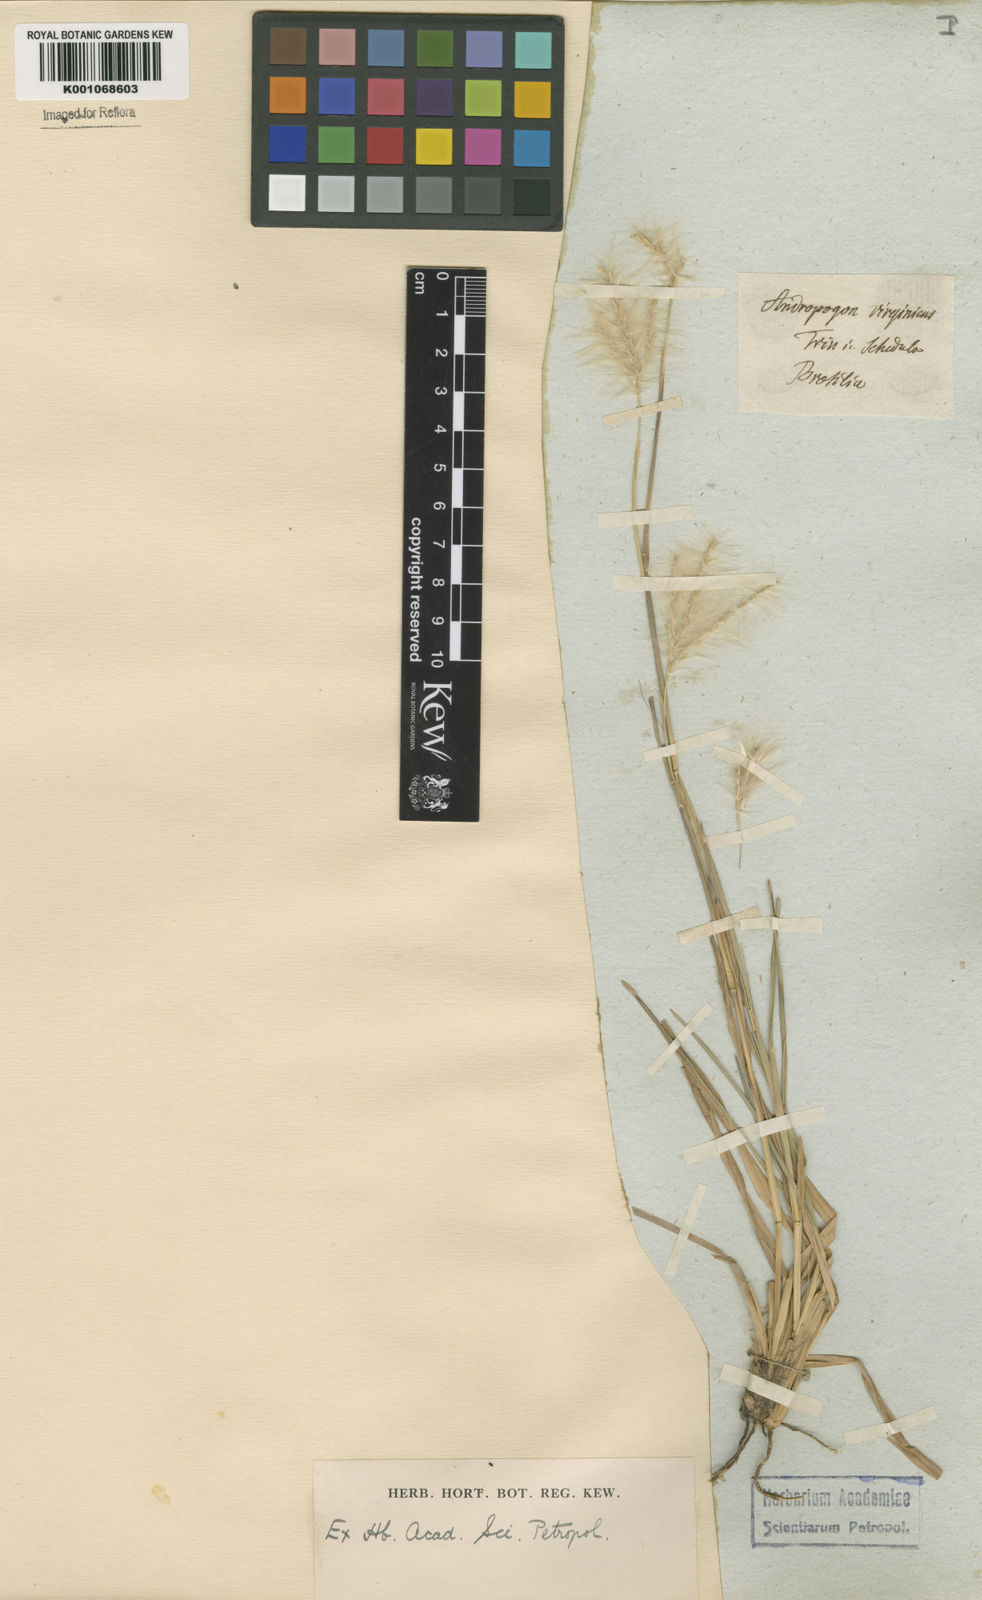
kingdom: Plantae
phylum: Tracheophyta
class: Liliopsida
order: Poales
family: Poaceae
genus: Andropogon
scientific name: Andropogon selloanus
